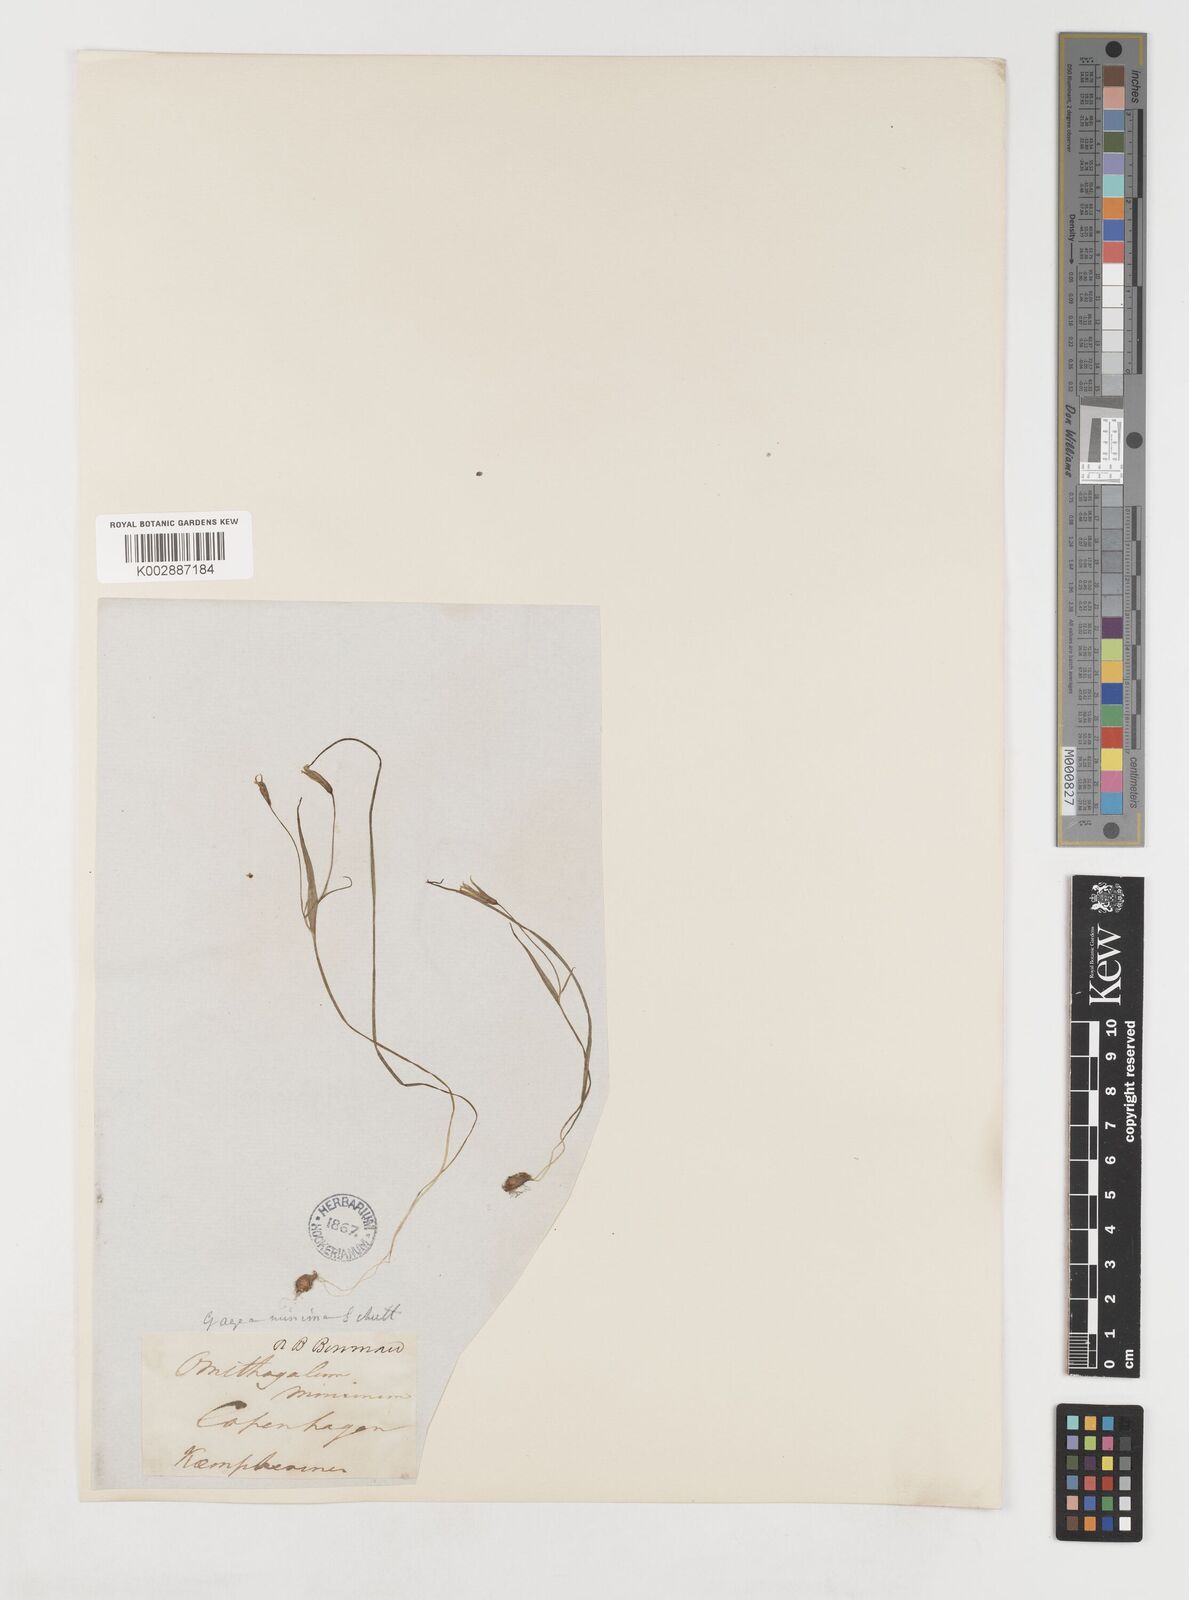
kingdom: Plantae
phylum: Tracheophyta
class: Liliopsida
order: Liliales
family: Liliaceae
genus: Gagea
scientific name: Gagea minima
